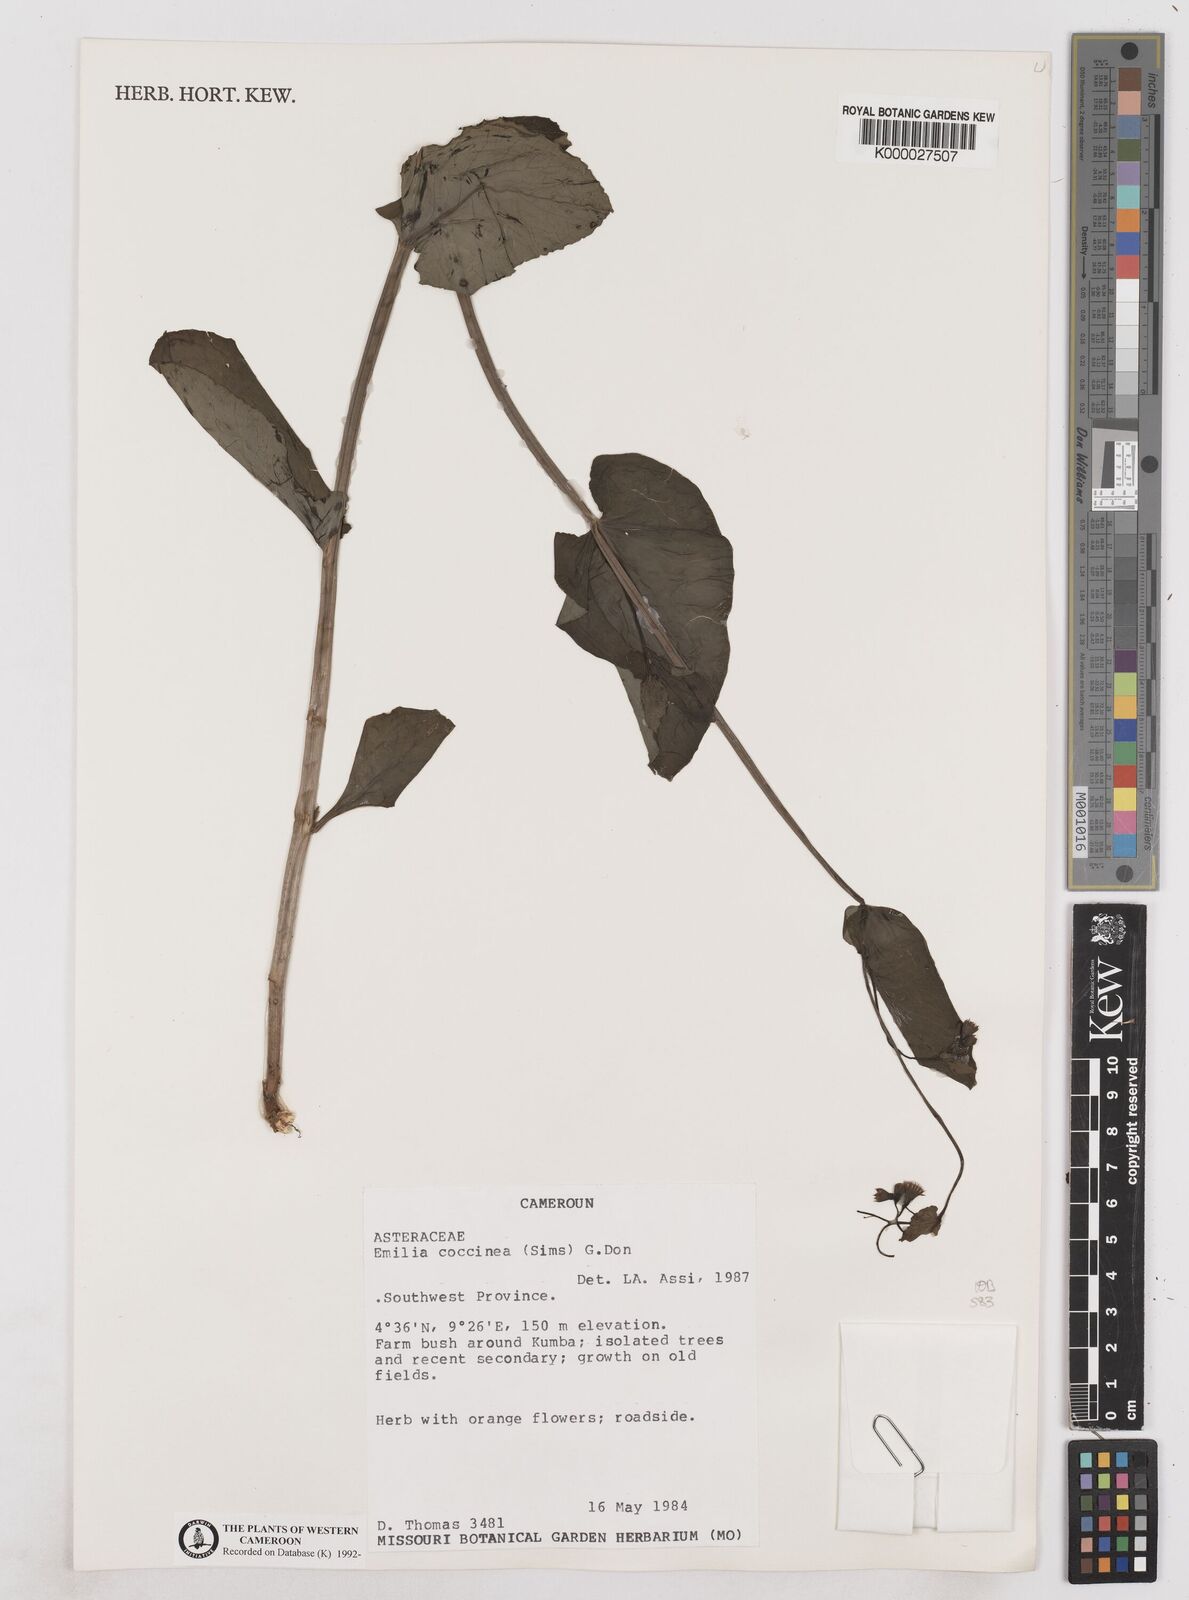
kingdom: Plantae
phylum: Tracheophyta
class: Magnoliopsida
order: Asterales
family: Asteraceae
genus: Emilia
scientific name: Emilia lisowskiana
